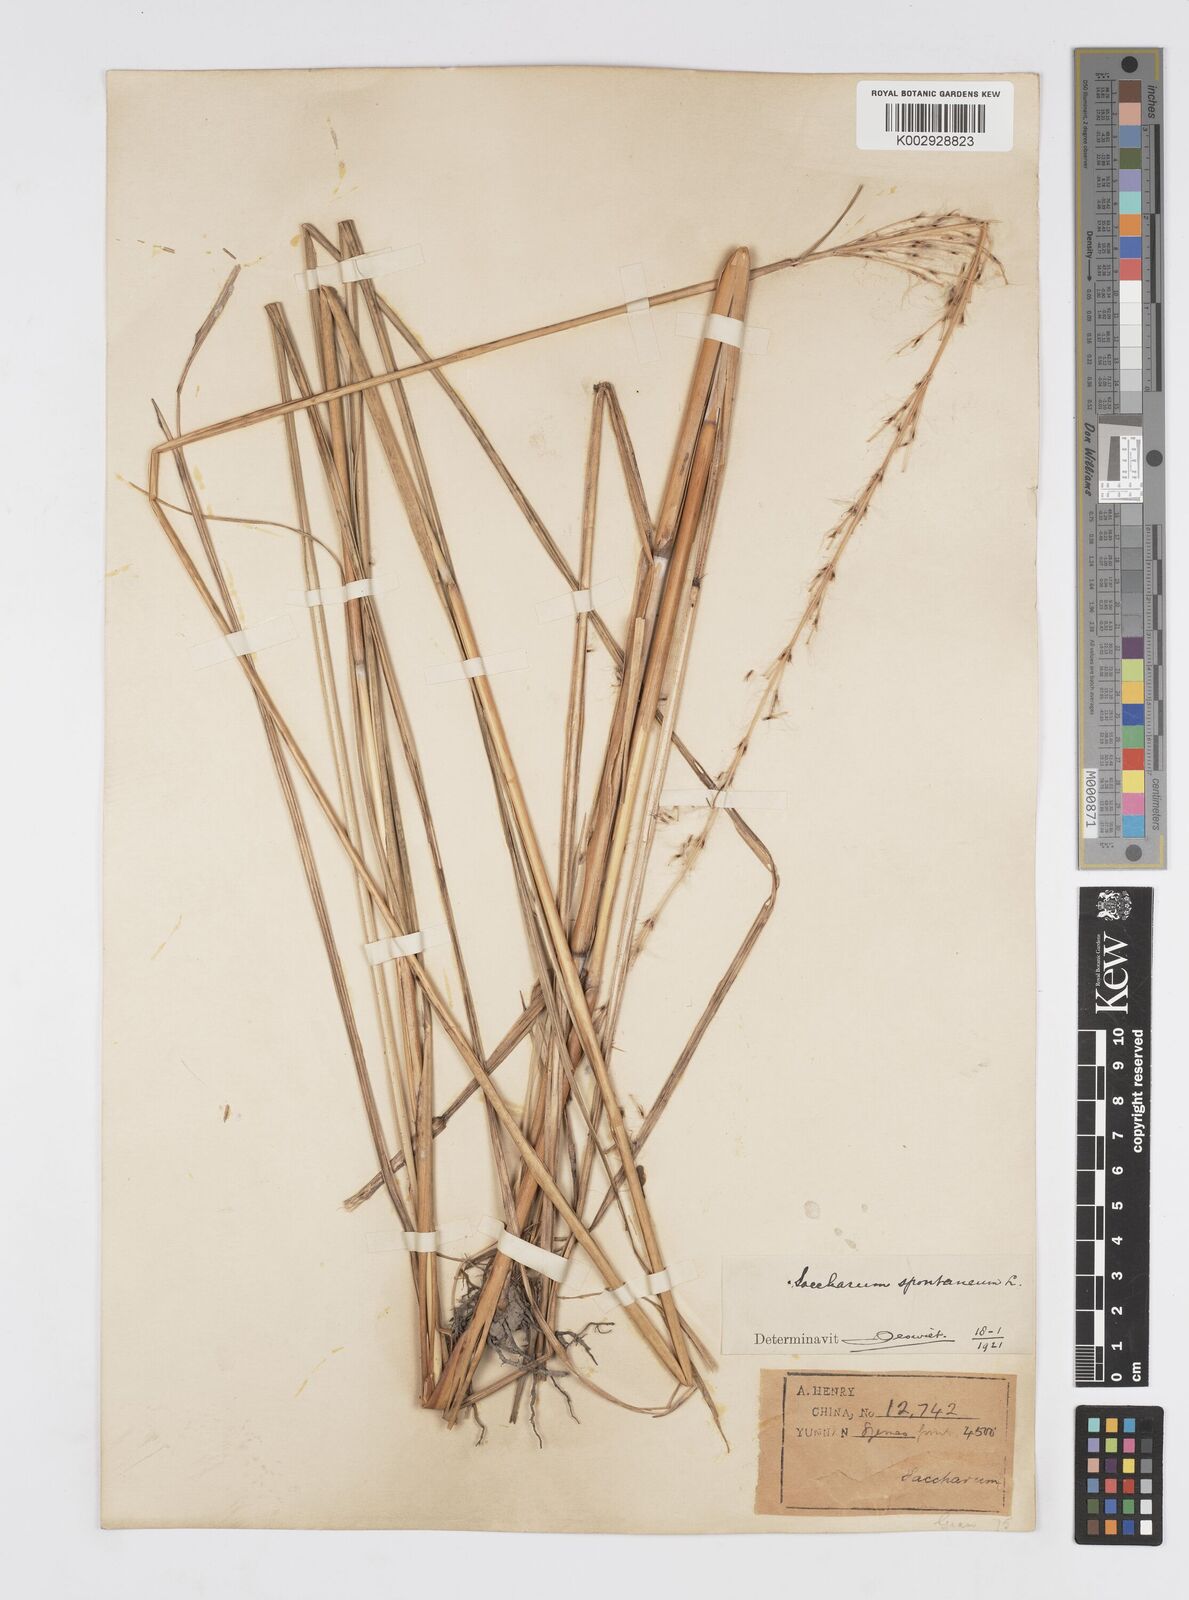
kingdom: Plantae
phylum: Tracheophyta
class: Liliopsida
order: Poales
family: Poaceae
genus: Saccharum
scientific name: Saccharum spontaneum
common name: Wild sugarcane
